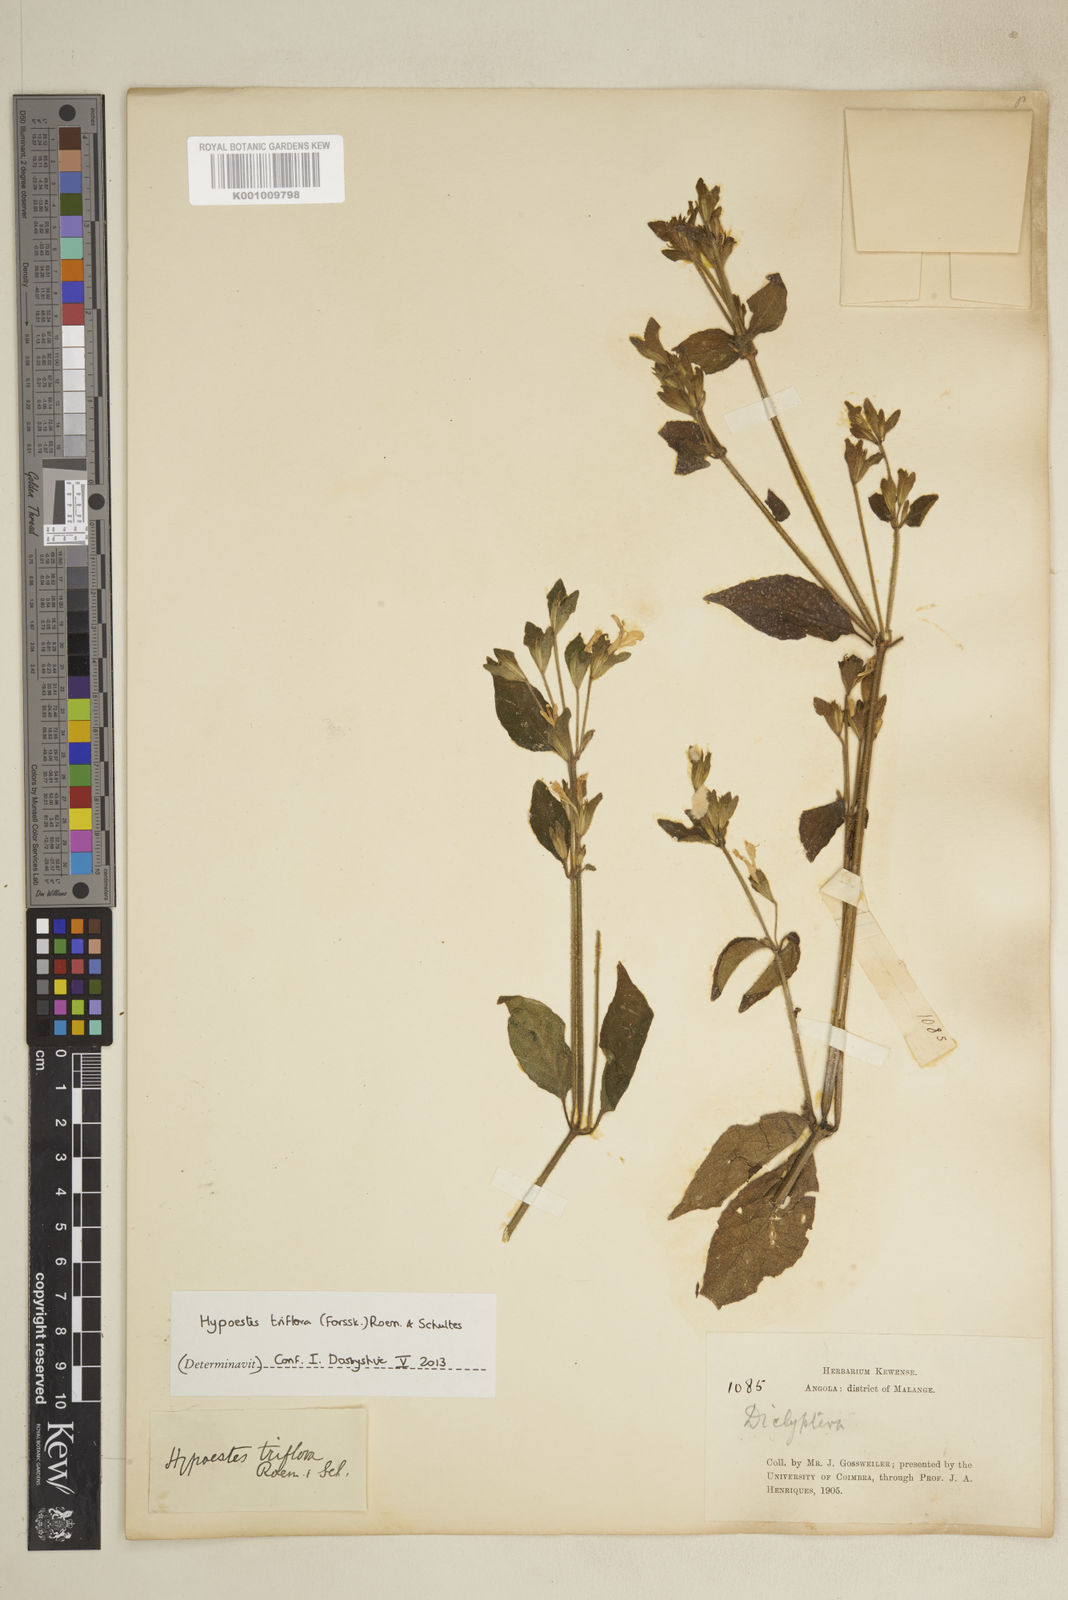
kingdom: Plantae
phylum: Tracheophyta
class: Magnoliopsida
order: Lamiales
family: Acanthaceae
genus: Hypoestes
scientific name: Hypoestes triflora
